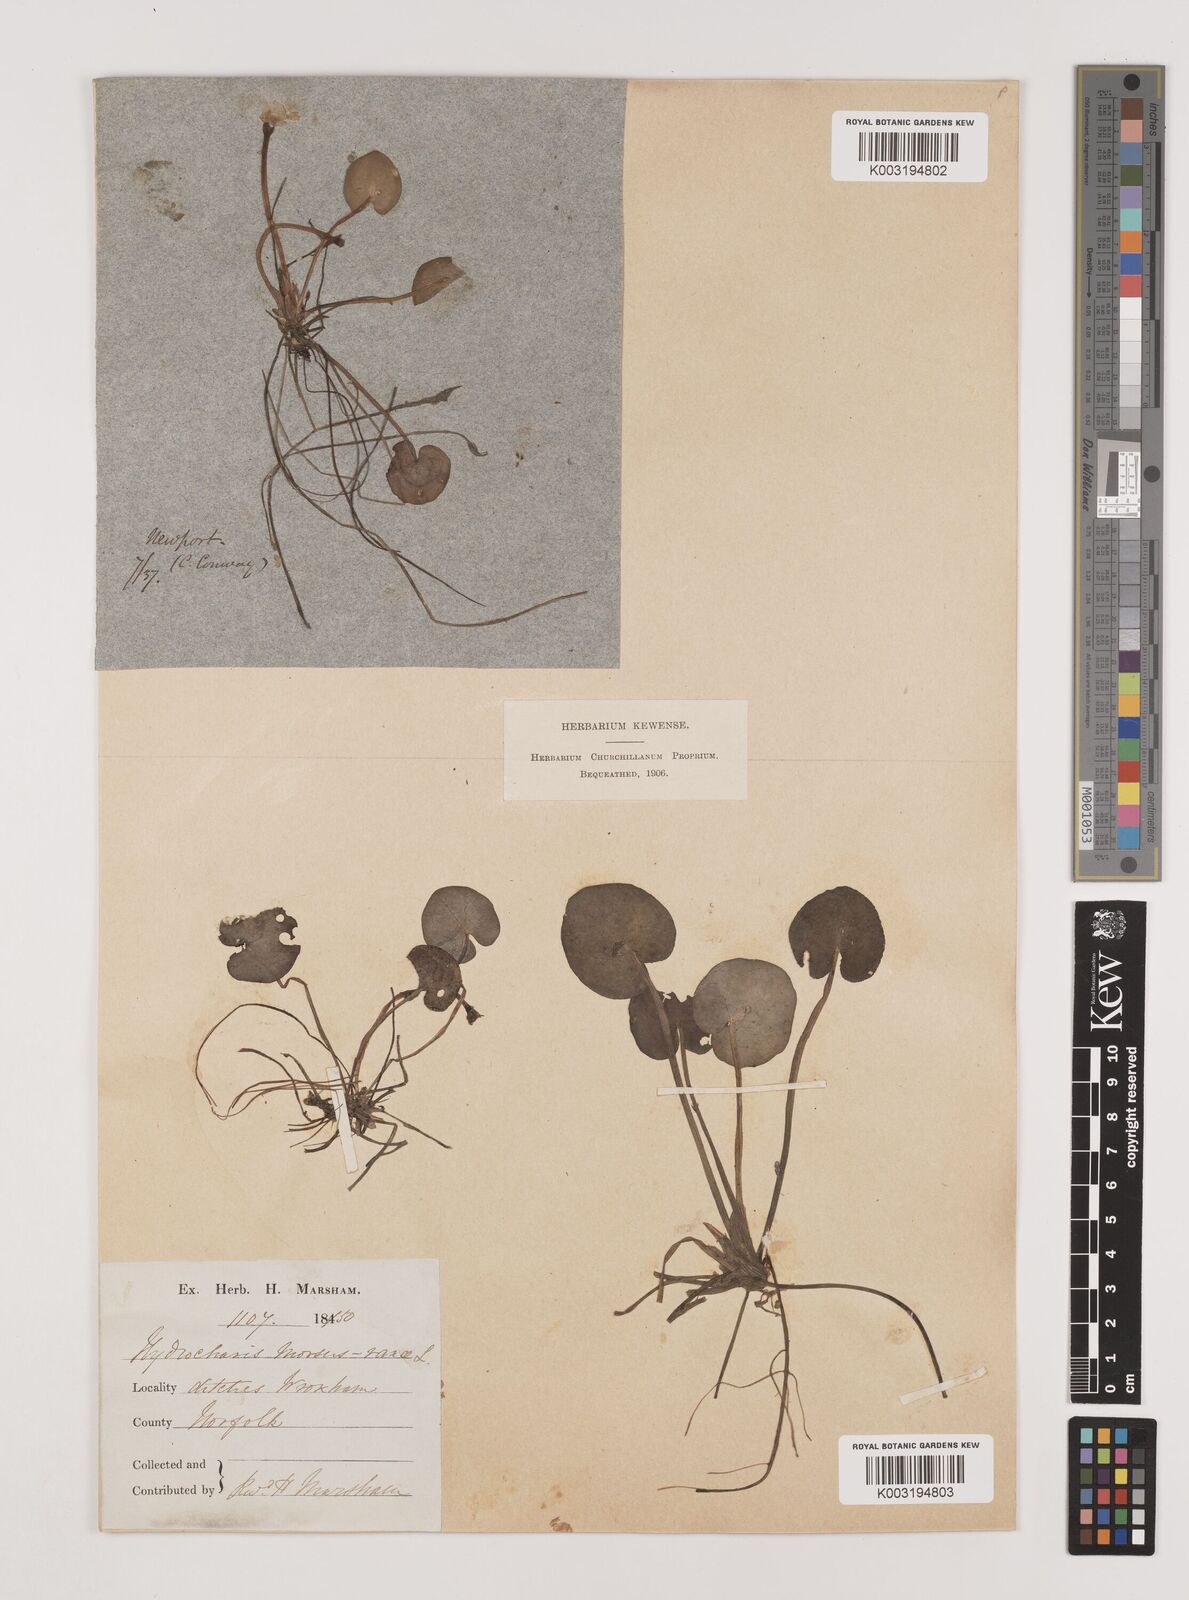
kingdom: Plantae
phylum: Tracheophyta
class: Liliopsida
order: Alismatales
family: Hydrocharitaceae
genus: Hydrocharis
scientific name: Hydrocharis morsus-ranae
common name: Frogbit
